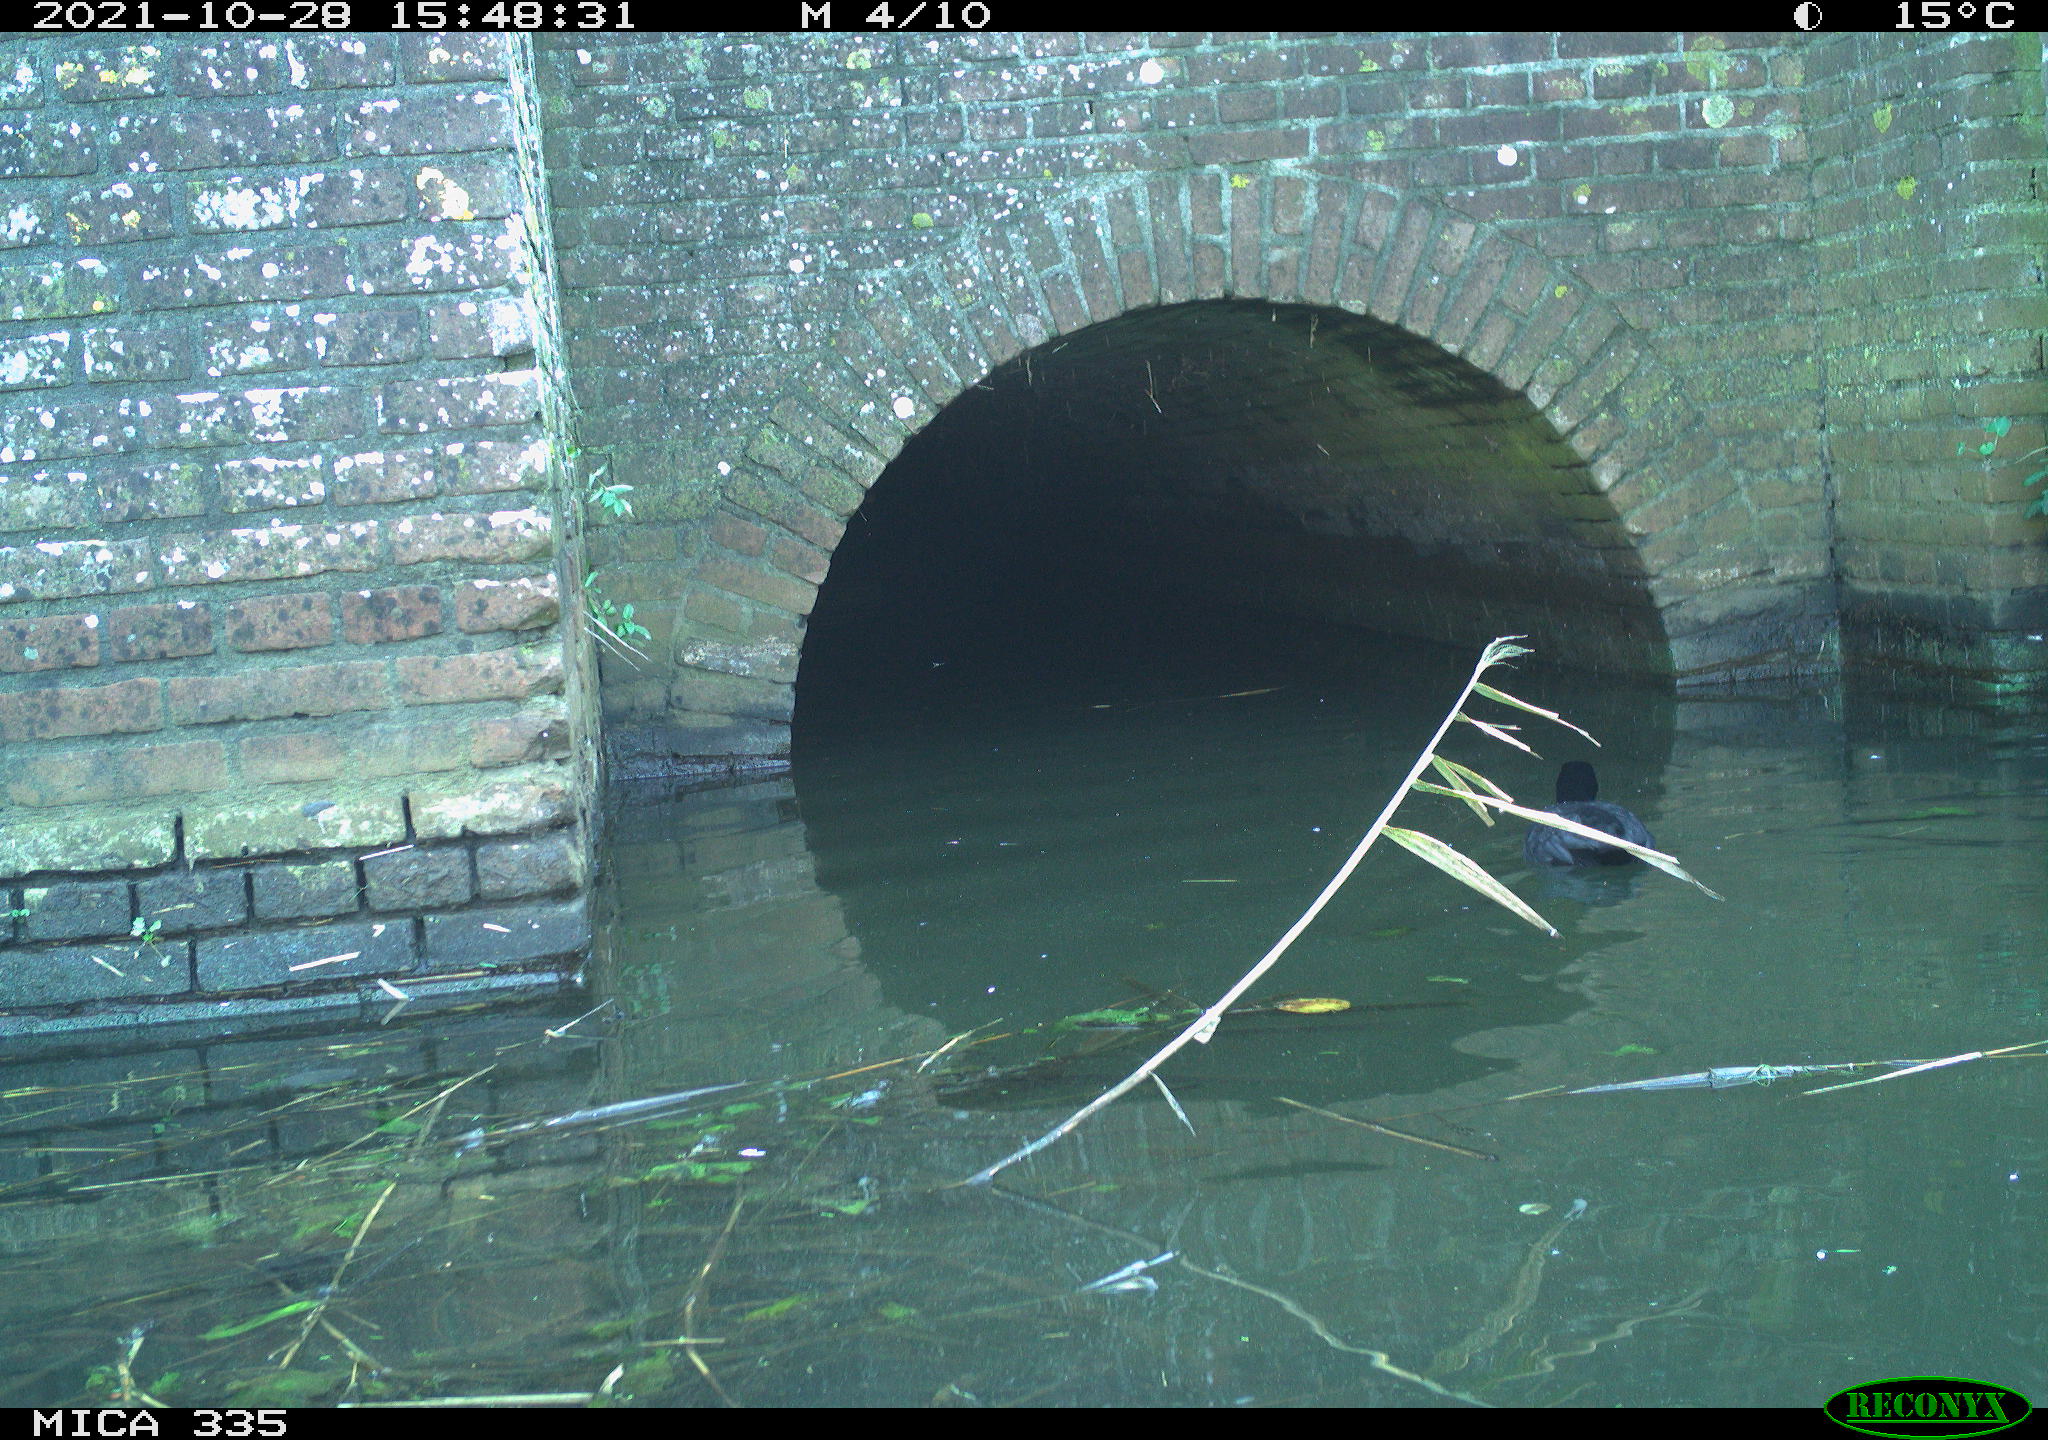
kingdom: Animalia
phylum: Chordata
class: Aves
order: Gruiformes
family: Rallidae
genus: Fulica
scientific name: Fulica atra
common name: Eurasian coot
